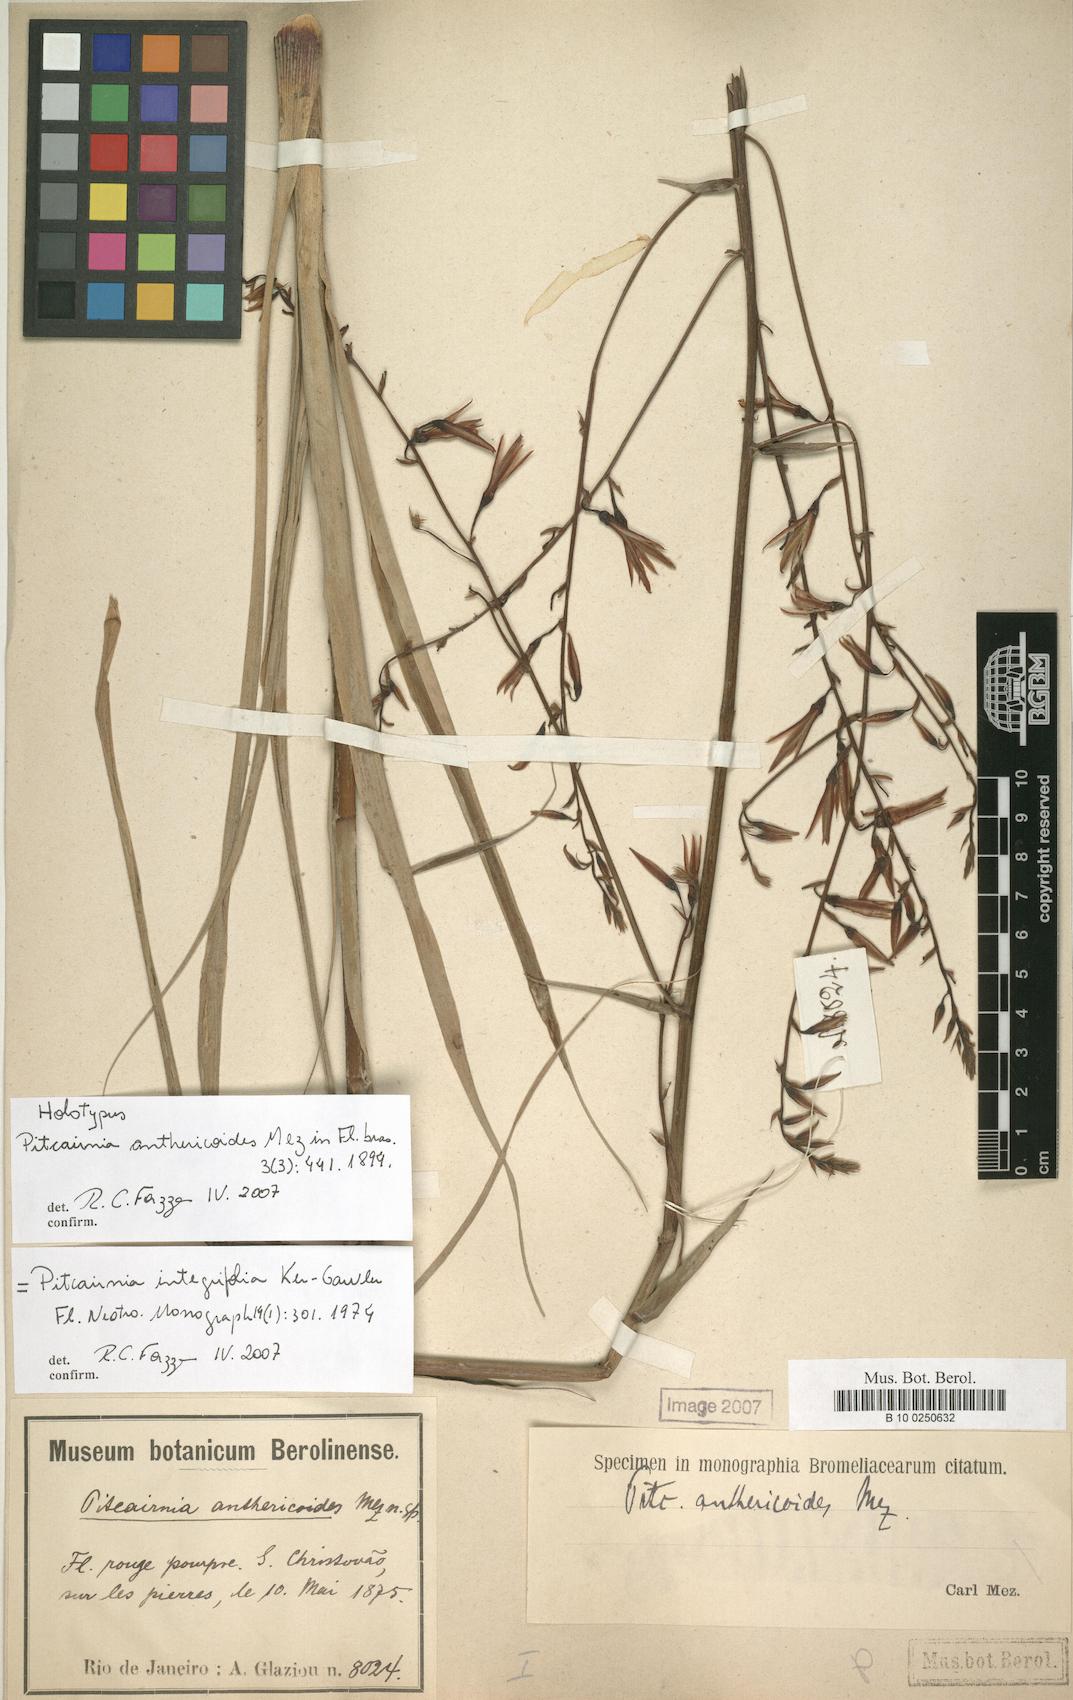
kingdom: Plantae
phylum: Tracheophyta
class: Liliopsida
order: Poales
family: Bromeliaceae
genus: Pitcairnia
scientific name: Pitcairnia integrifolia
